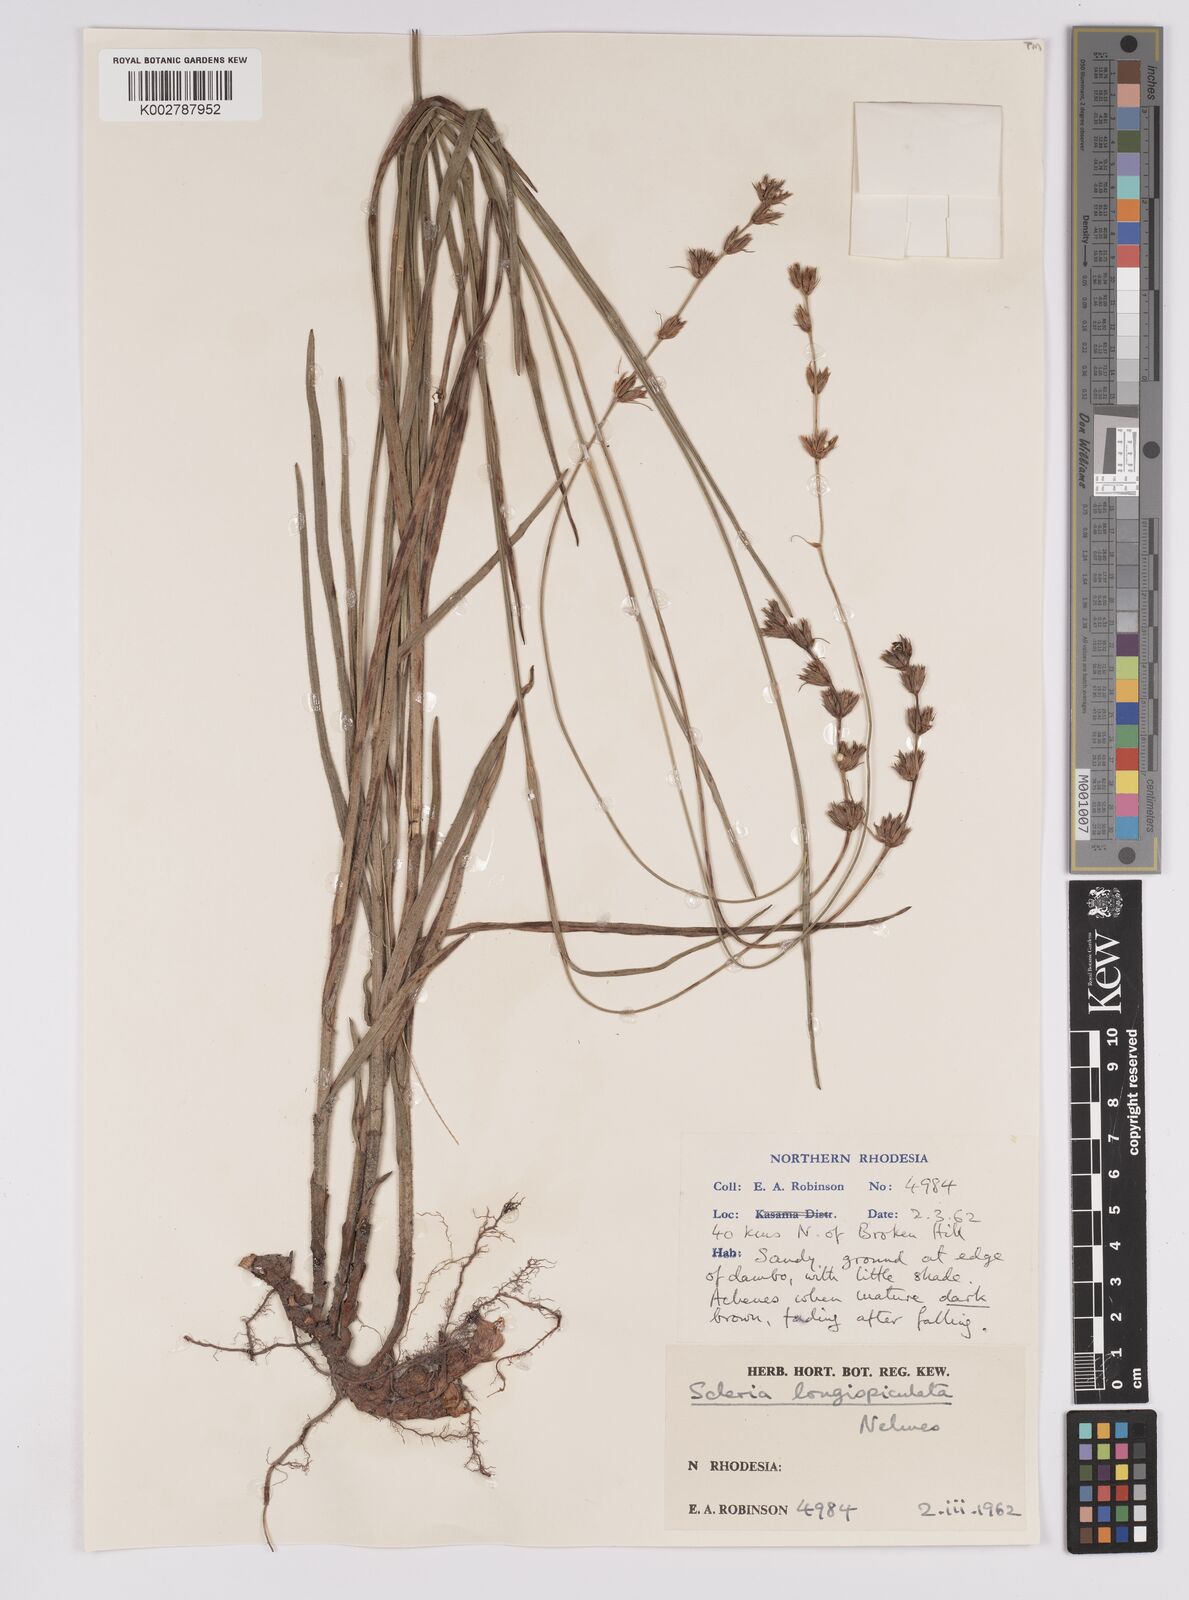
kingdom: Plantae
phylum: Tracheophyta
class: Liliopsida
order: Poales
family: Cyperaceae
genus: Scleria
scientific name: Scleria longispiculata
